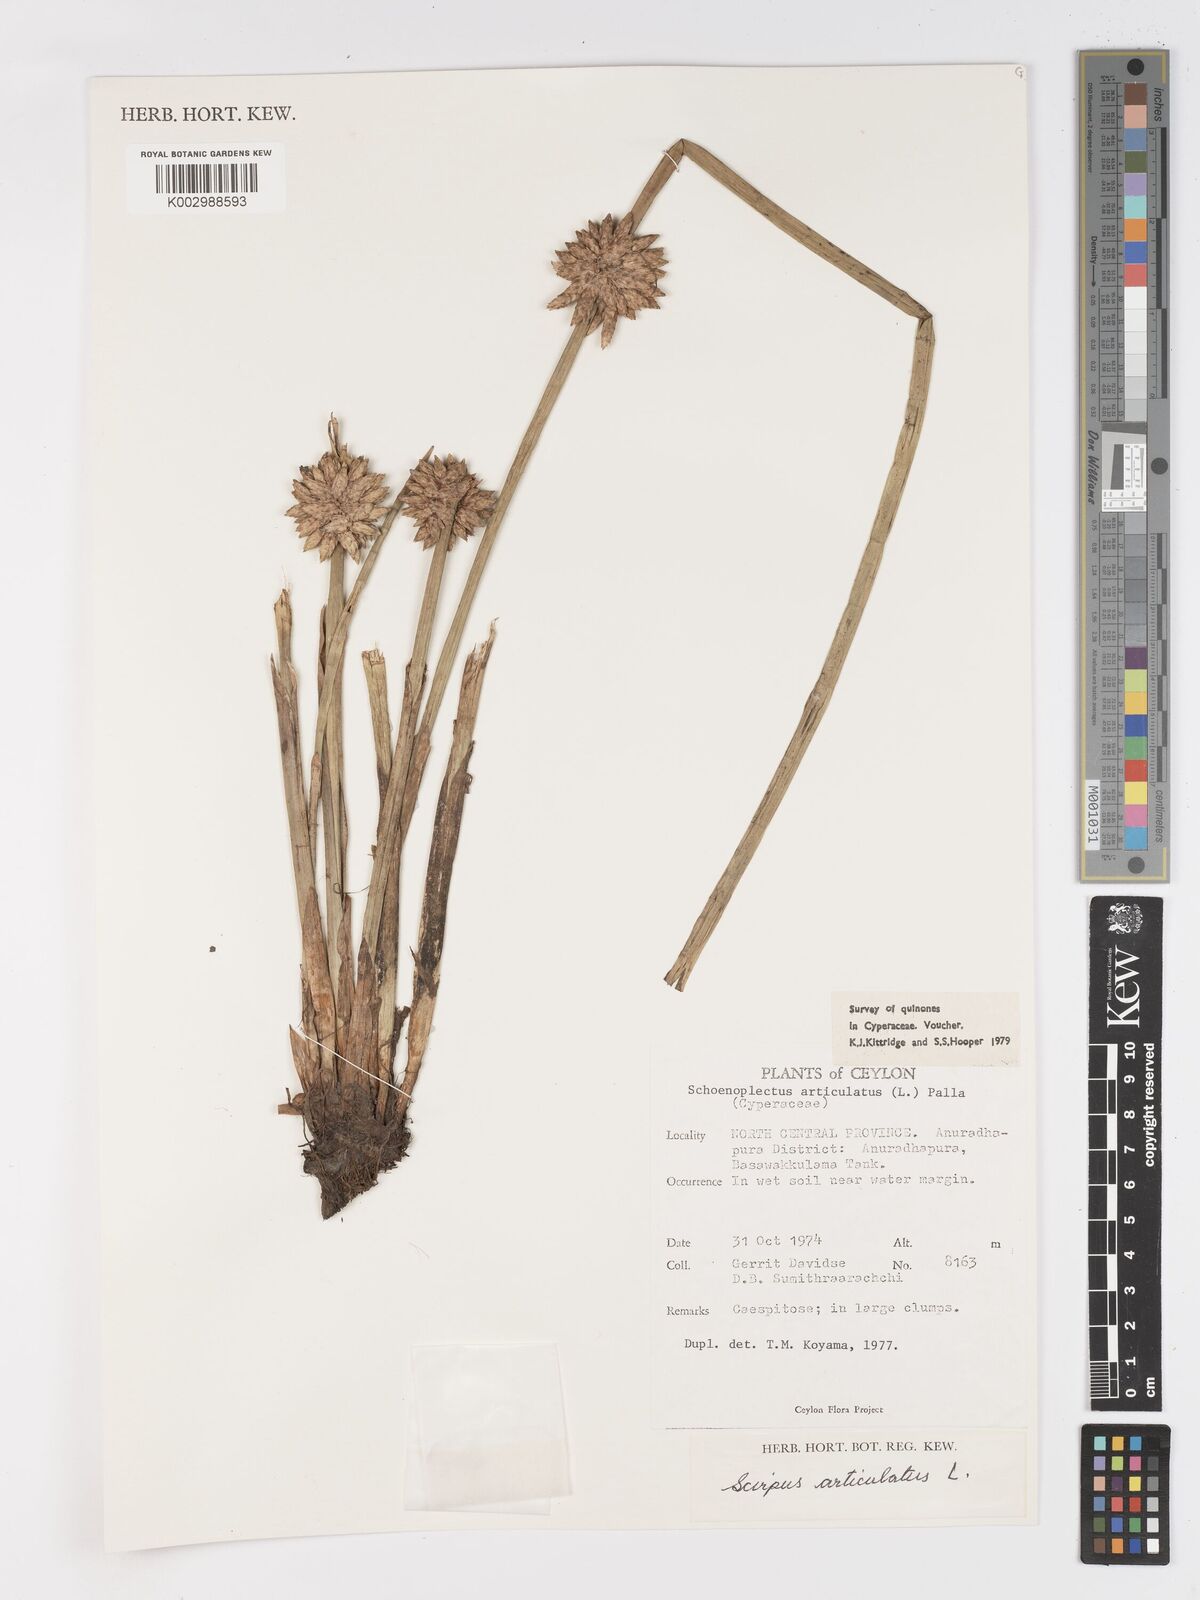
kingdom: Plantae
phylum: Tracheophyta
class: Liliopsida
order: Poales
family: Cyperaceae
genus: Schoenoplectiella
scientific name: Schoenoplectiella articulata
